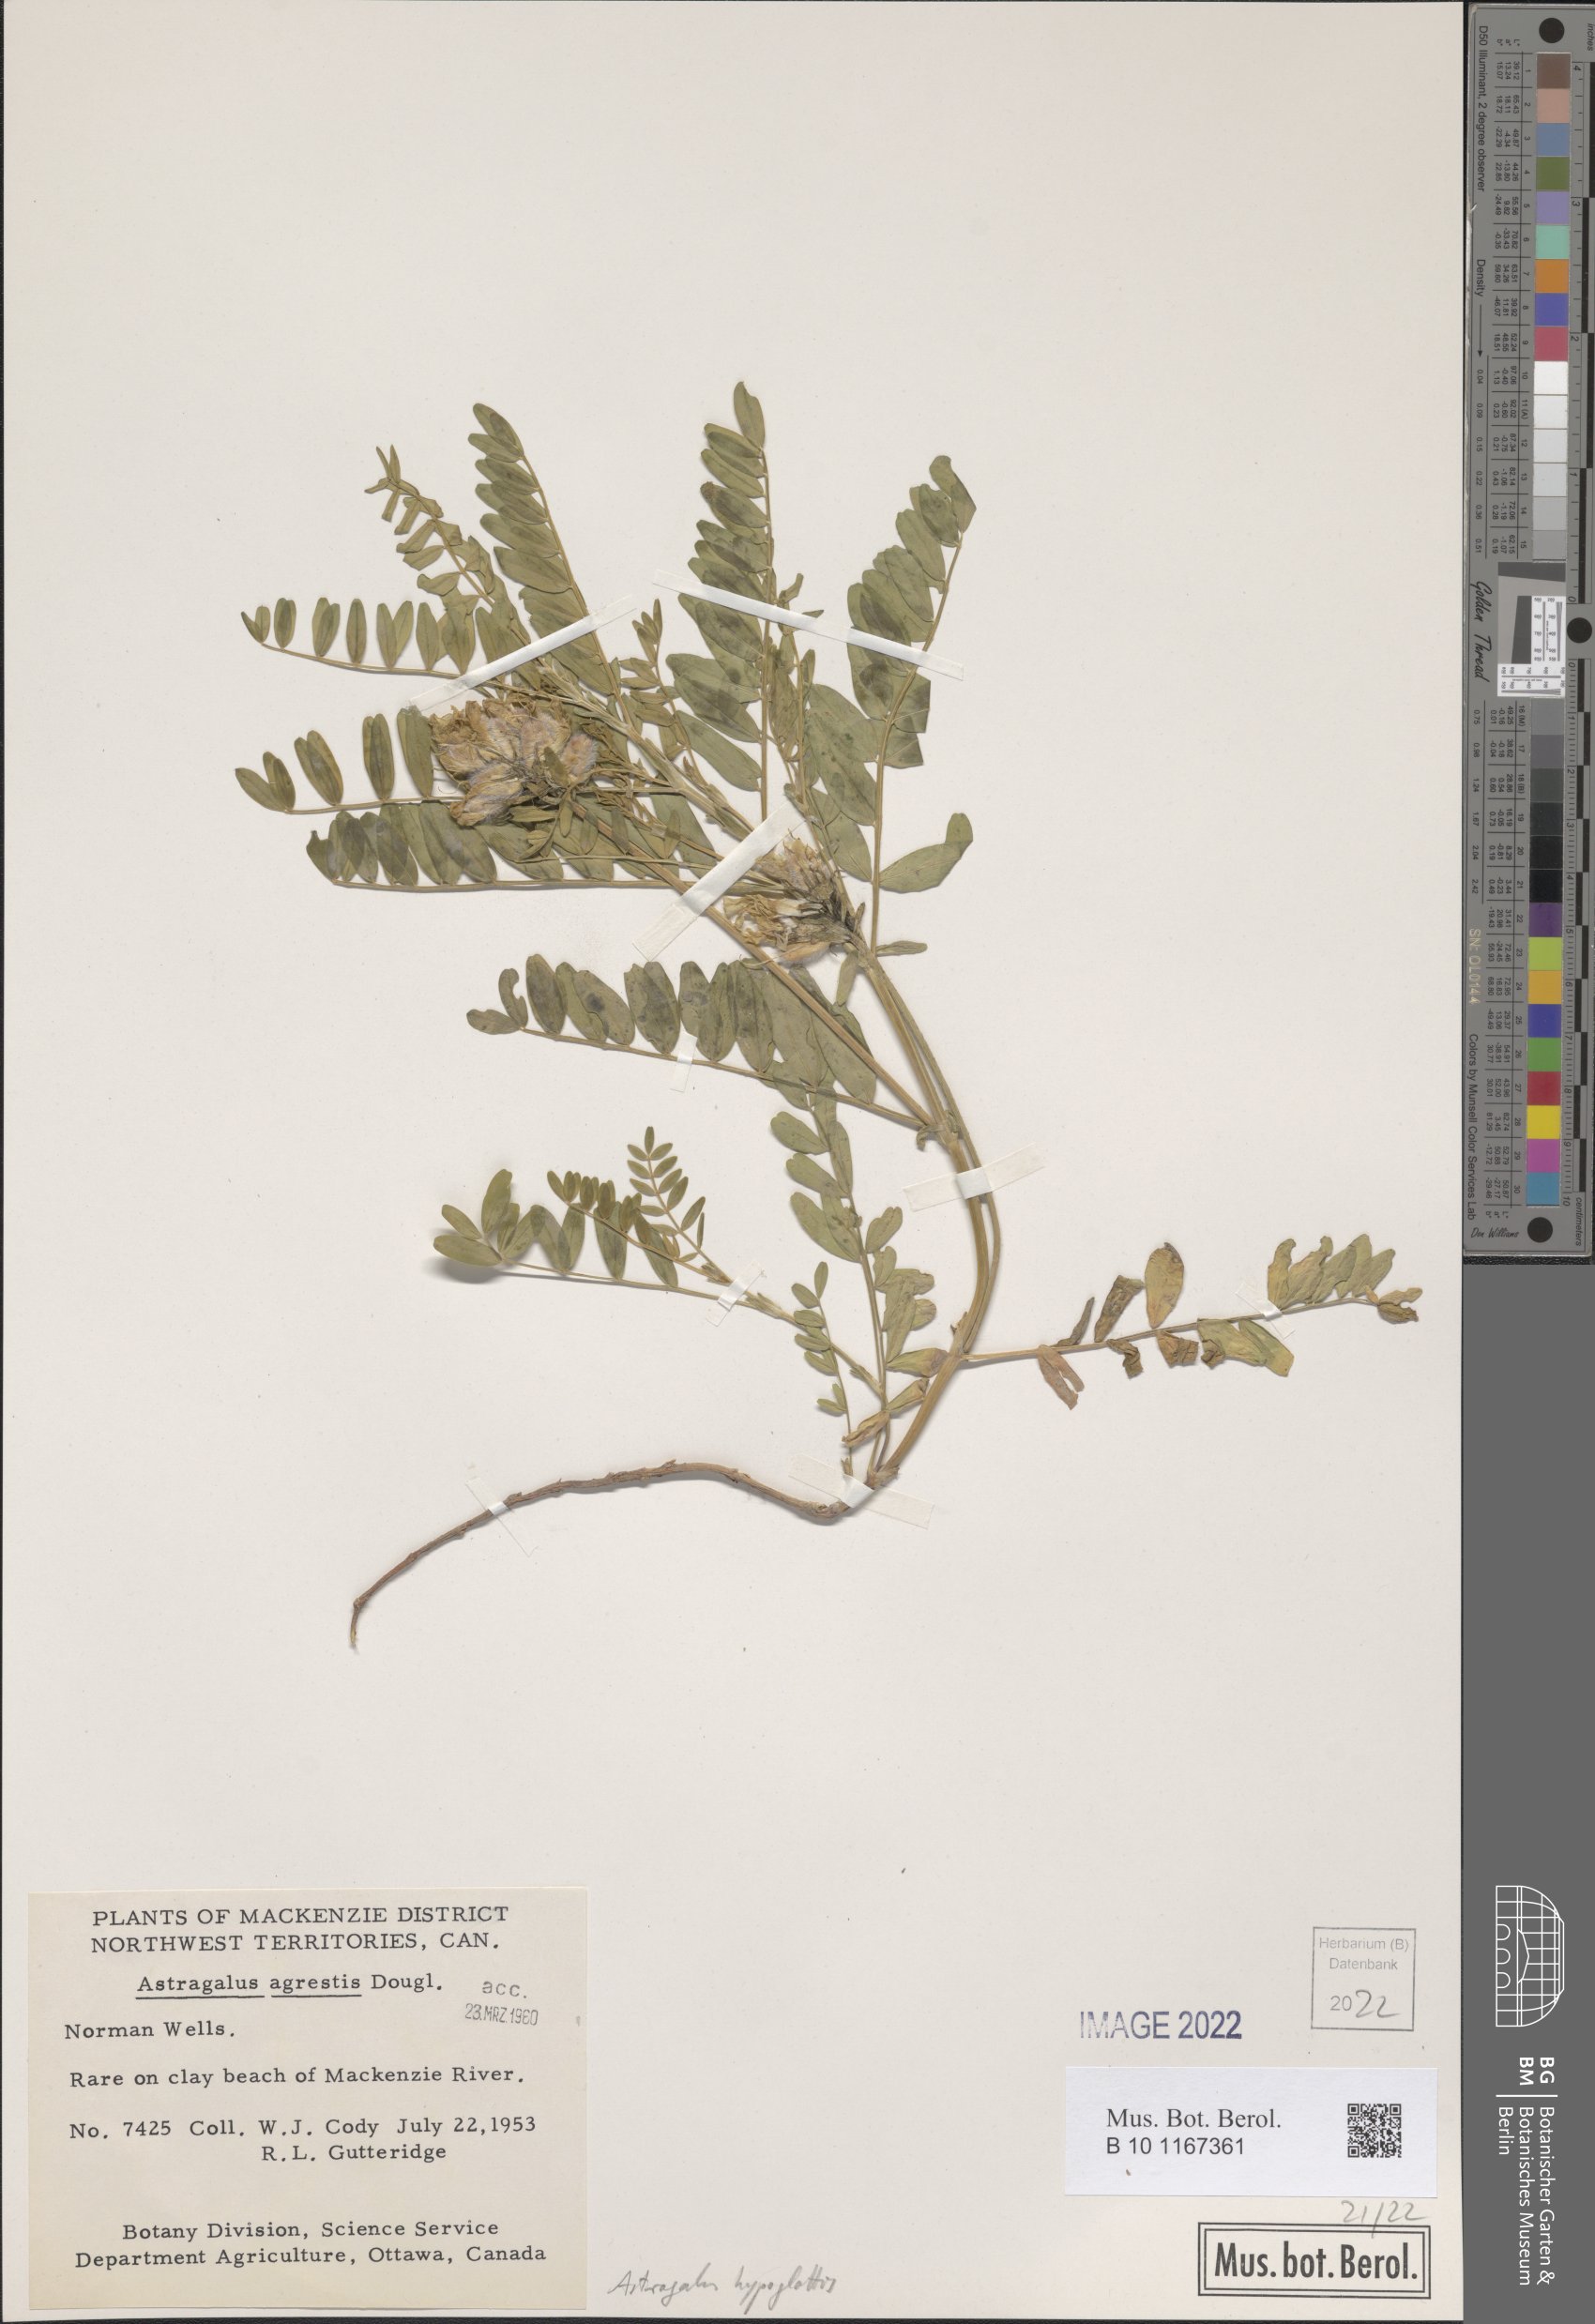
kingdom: Plantae
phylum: Tracheophyta
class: Magnoliopsida
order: Fabales
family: Fabaceae
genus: Astragalus
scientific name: Astragalus hypoglottis
